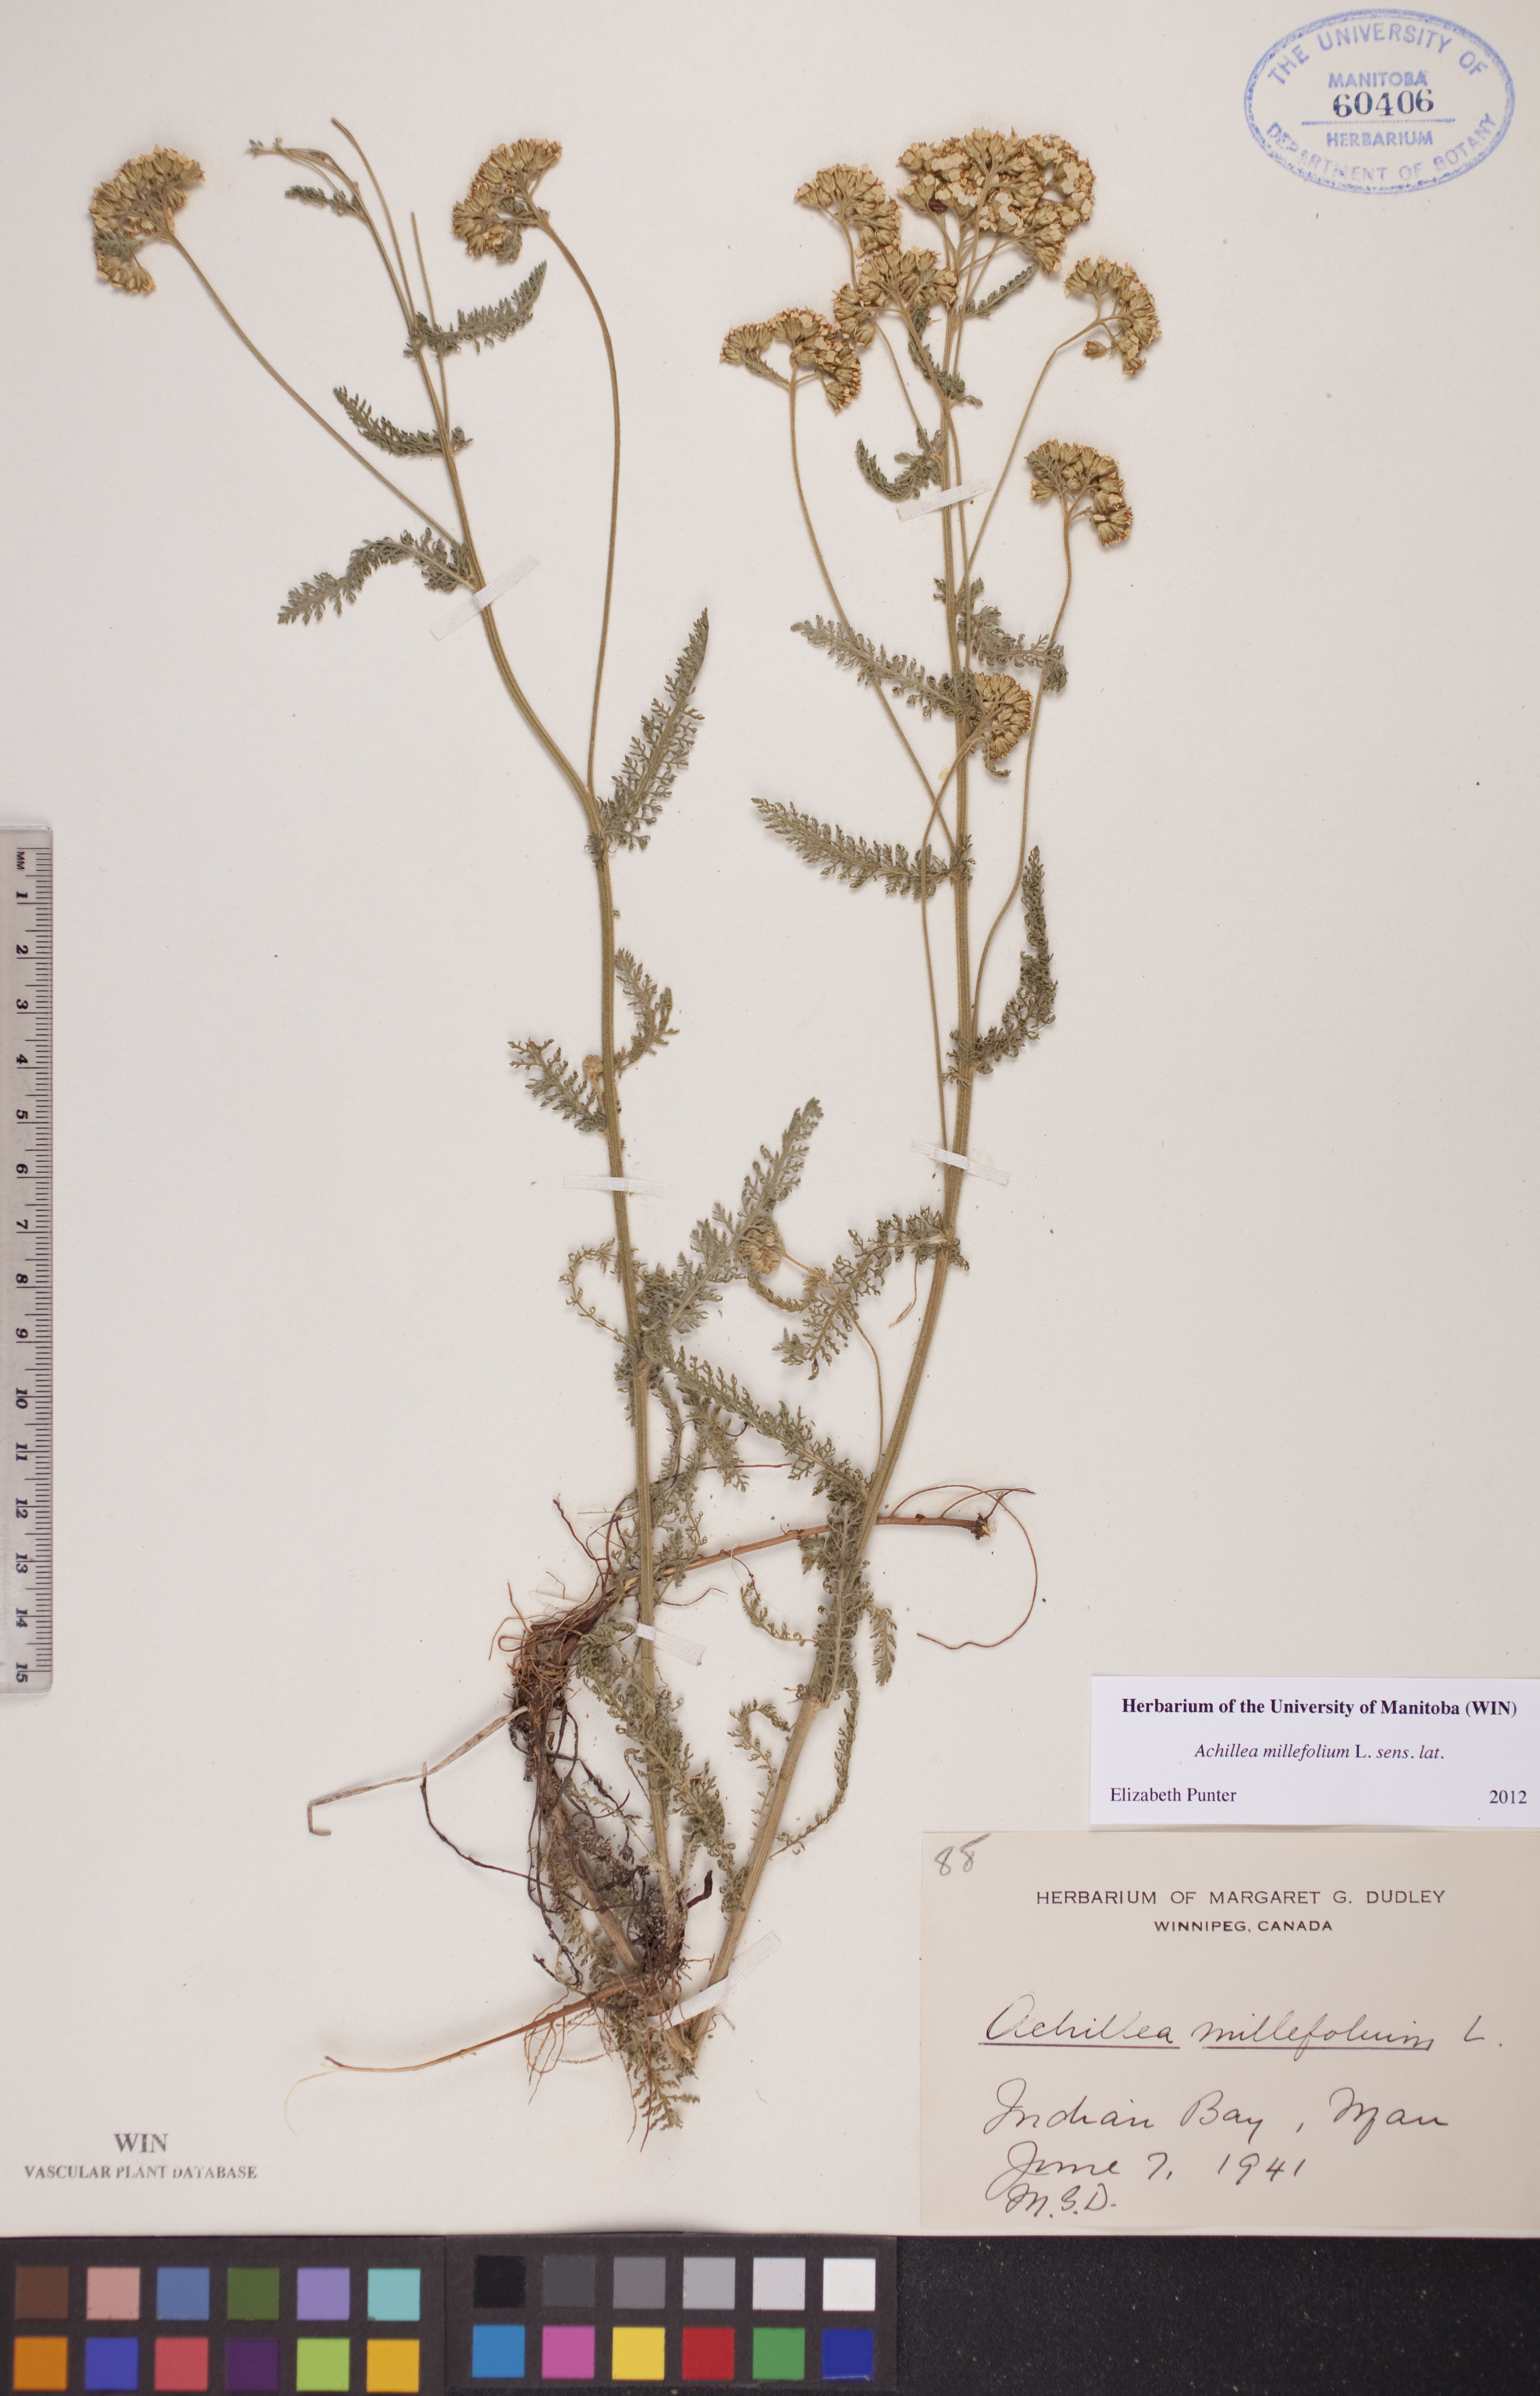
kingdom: Plantae
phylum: Tracheophyta
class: Magnoliopsida
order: Asterales
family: Asteraceae
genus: Achillea
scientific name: Achillea millefolium
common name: Yarrow
